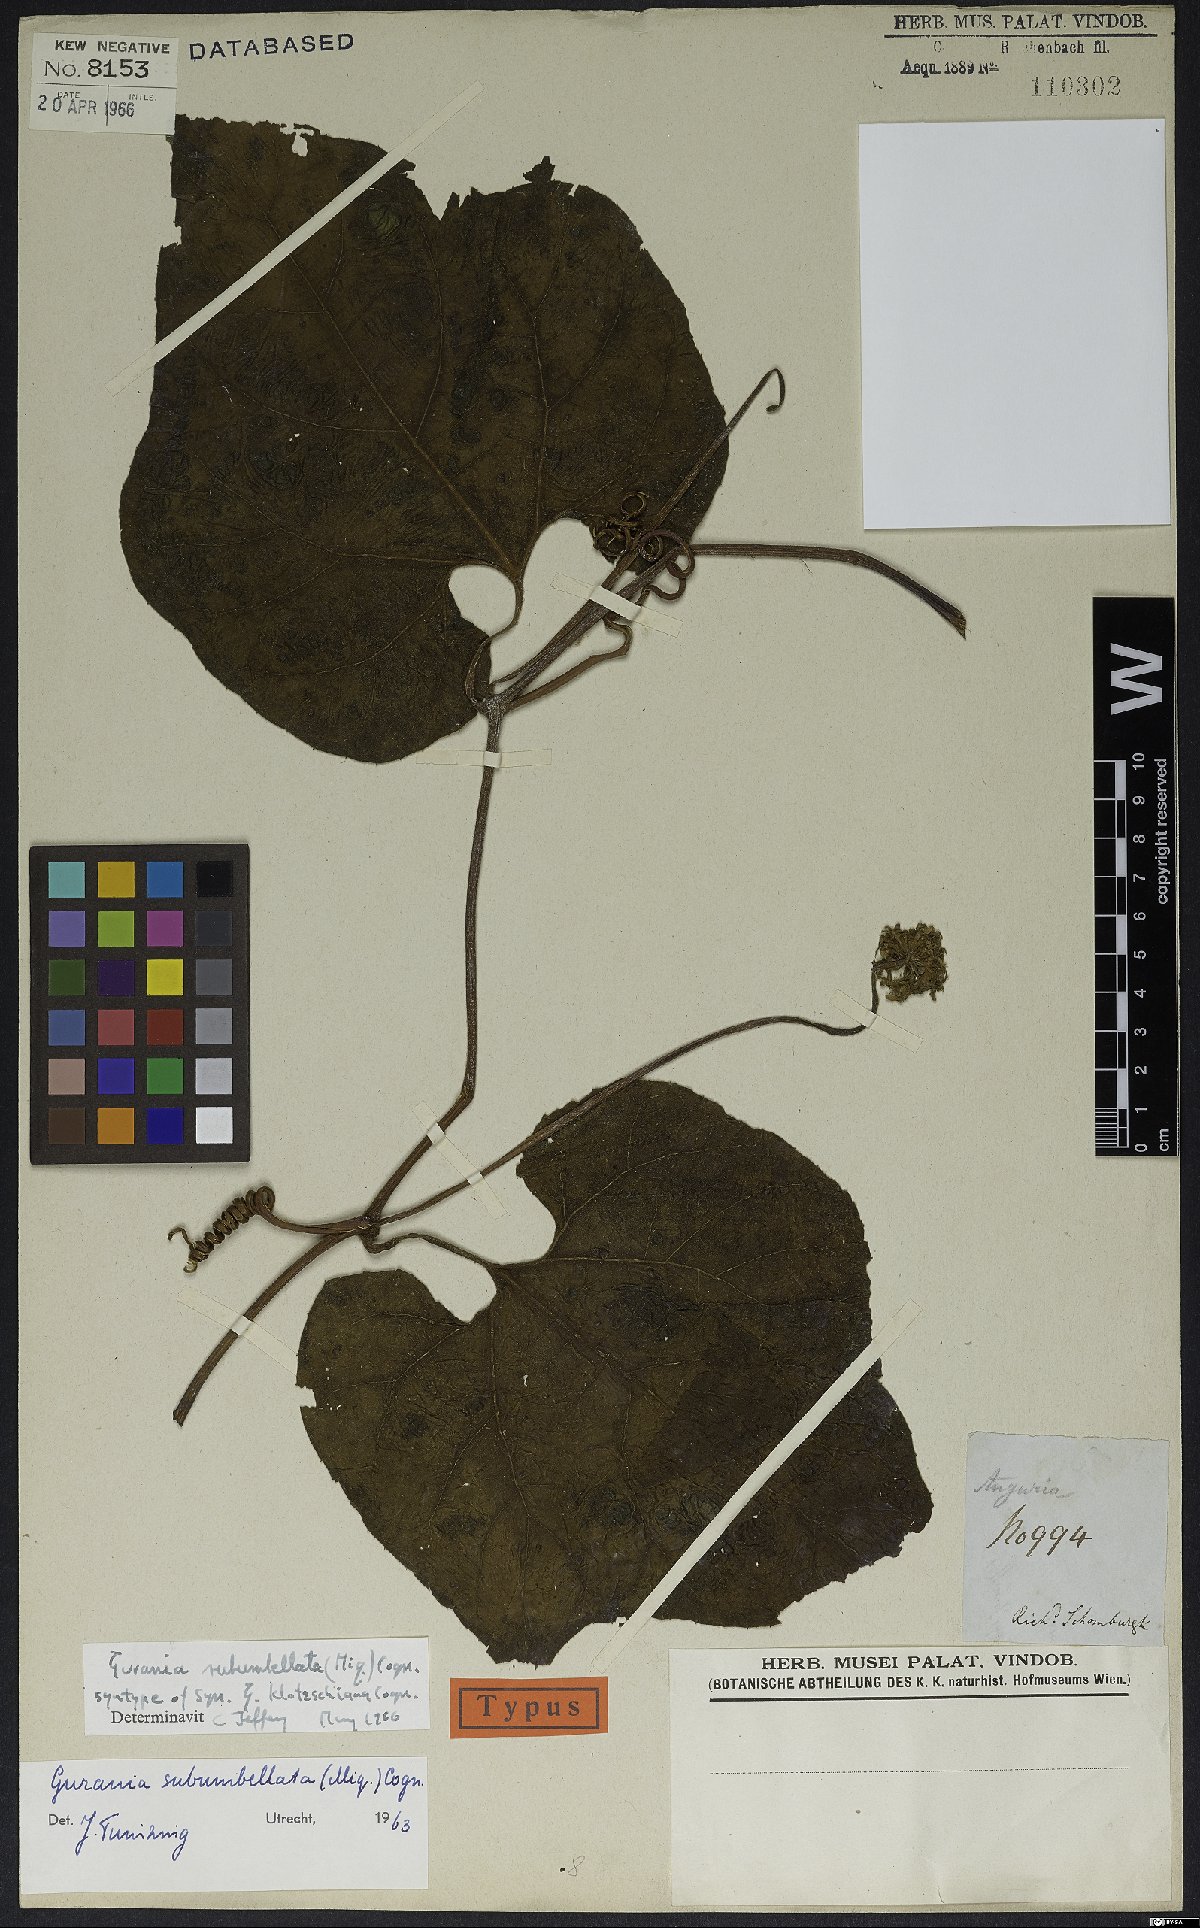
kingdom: Plantae
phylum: Tracheophyta
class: Magnoliopsida
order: Cucurbitales
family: Cucurbitaceae
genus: Gurania
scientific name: Gurania subumbellata
